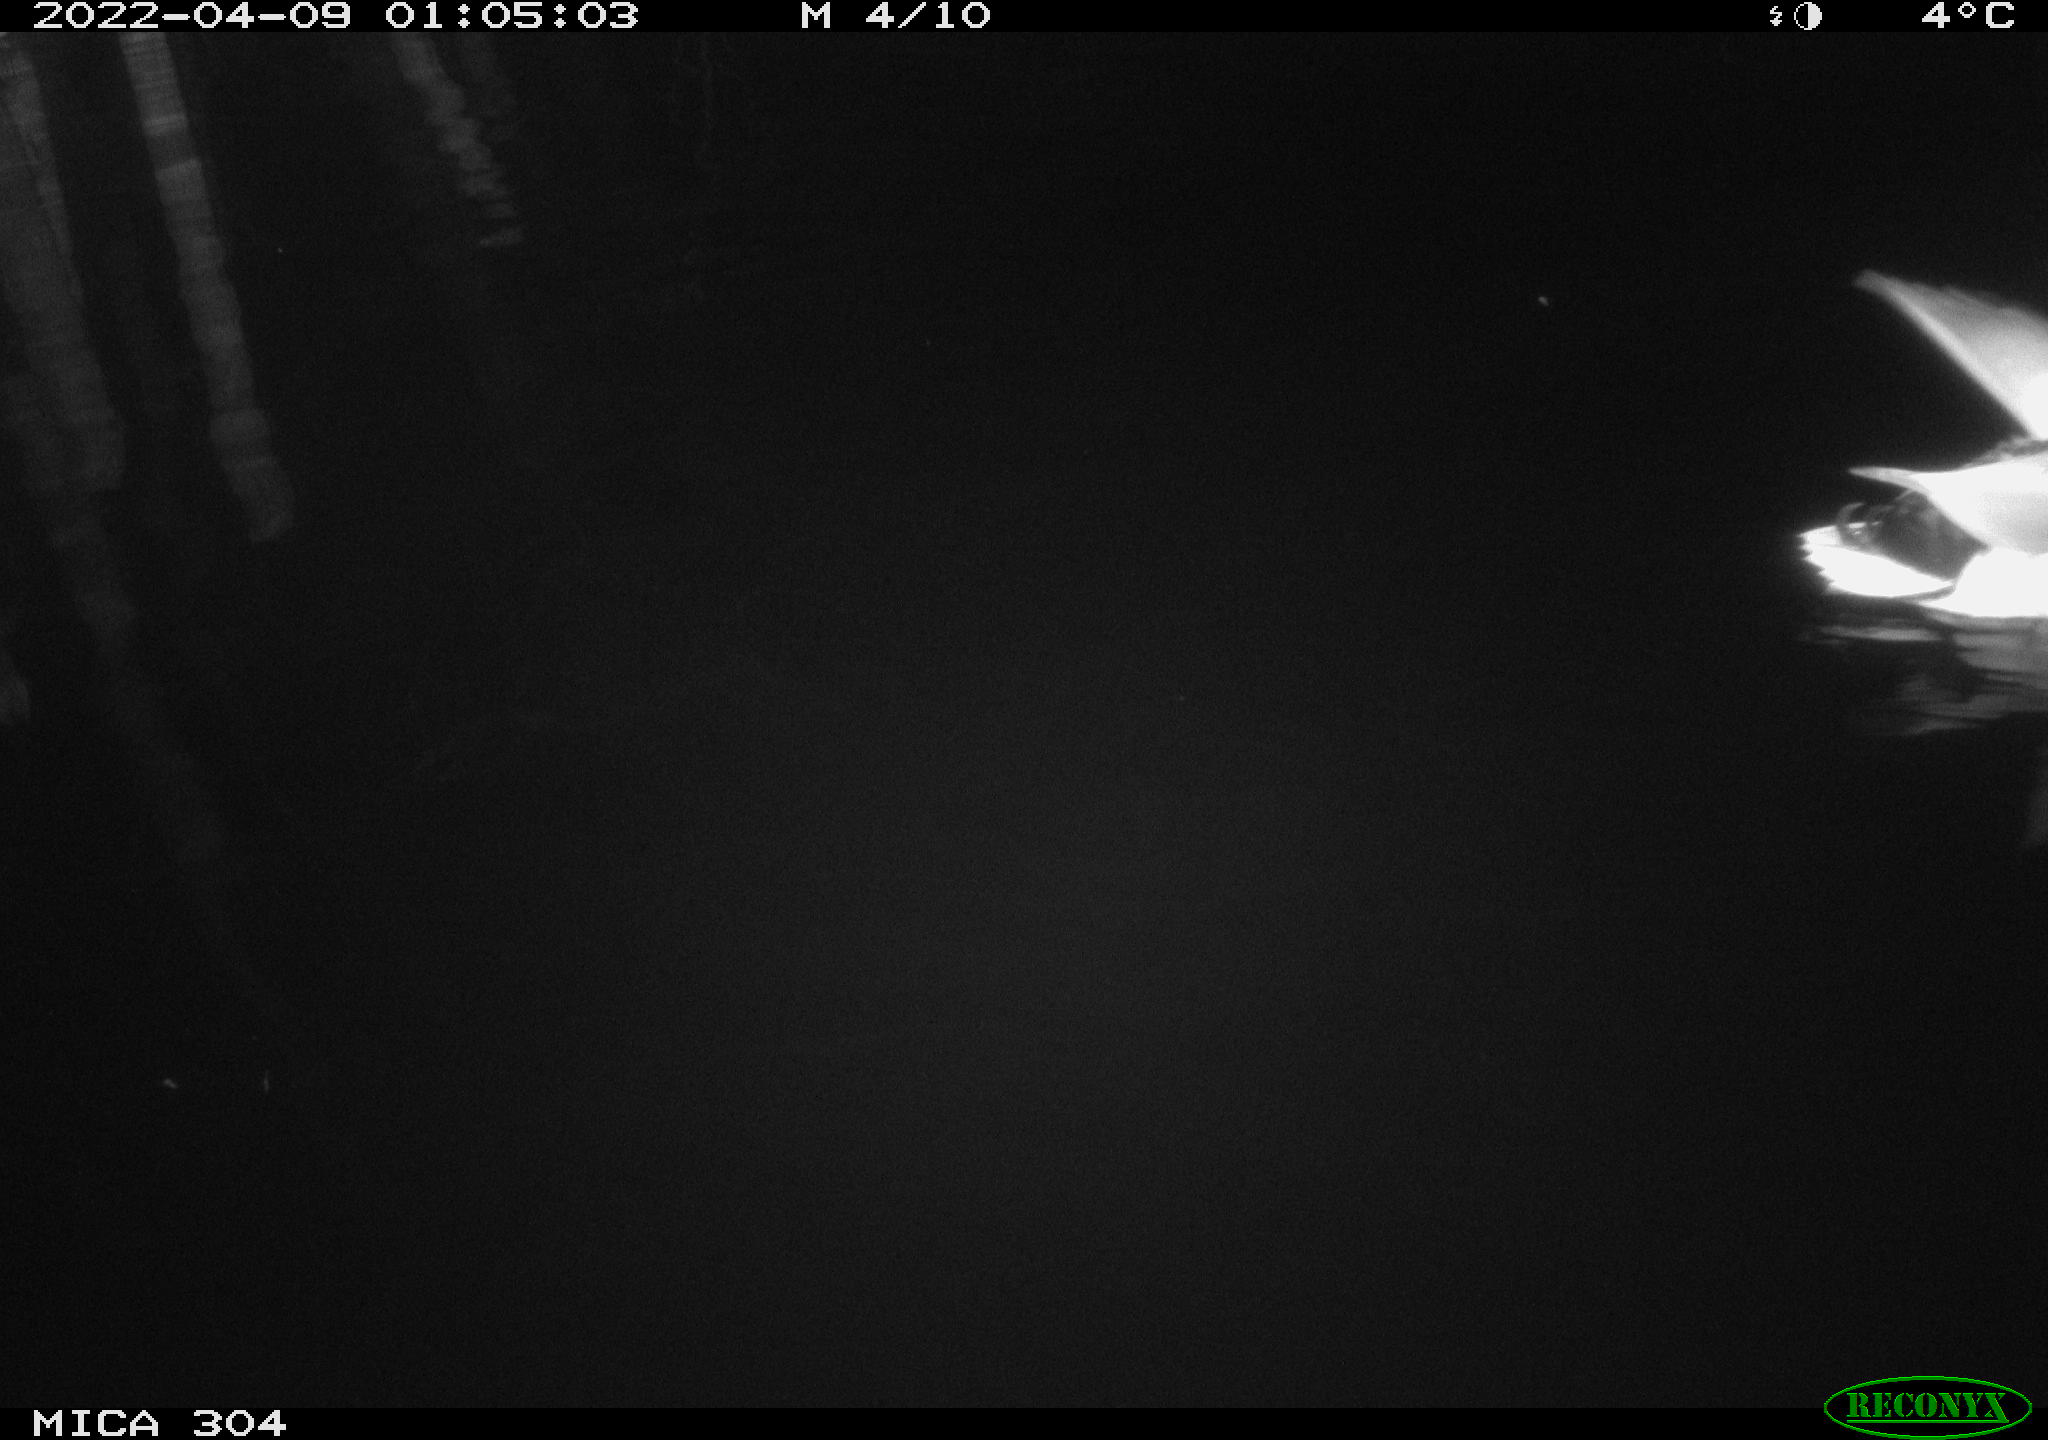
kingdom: Animalia
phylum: Chordata
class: Aves
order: Anseriformes
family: Anatidae
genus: Anas
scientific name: Anas platyrhynchos
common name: Mallard
